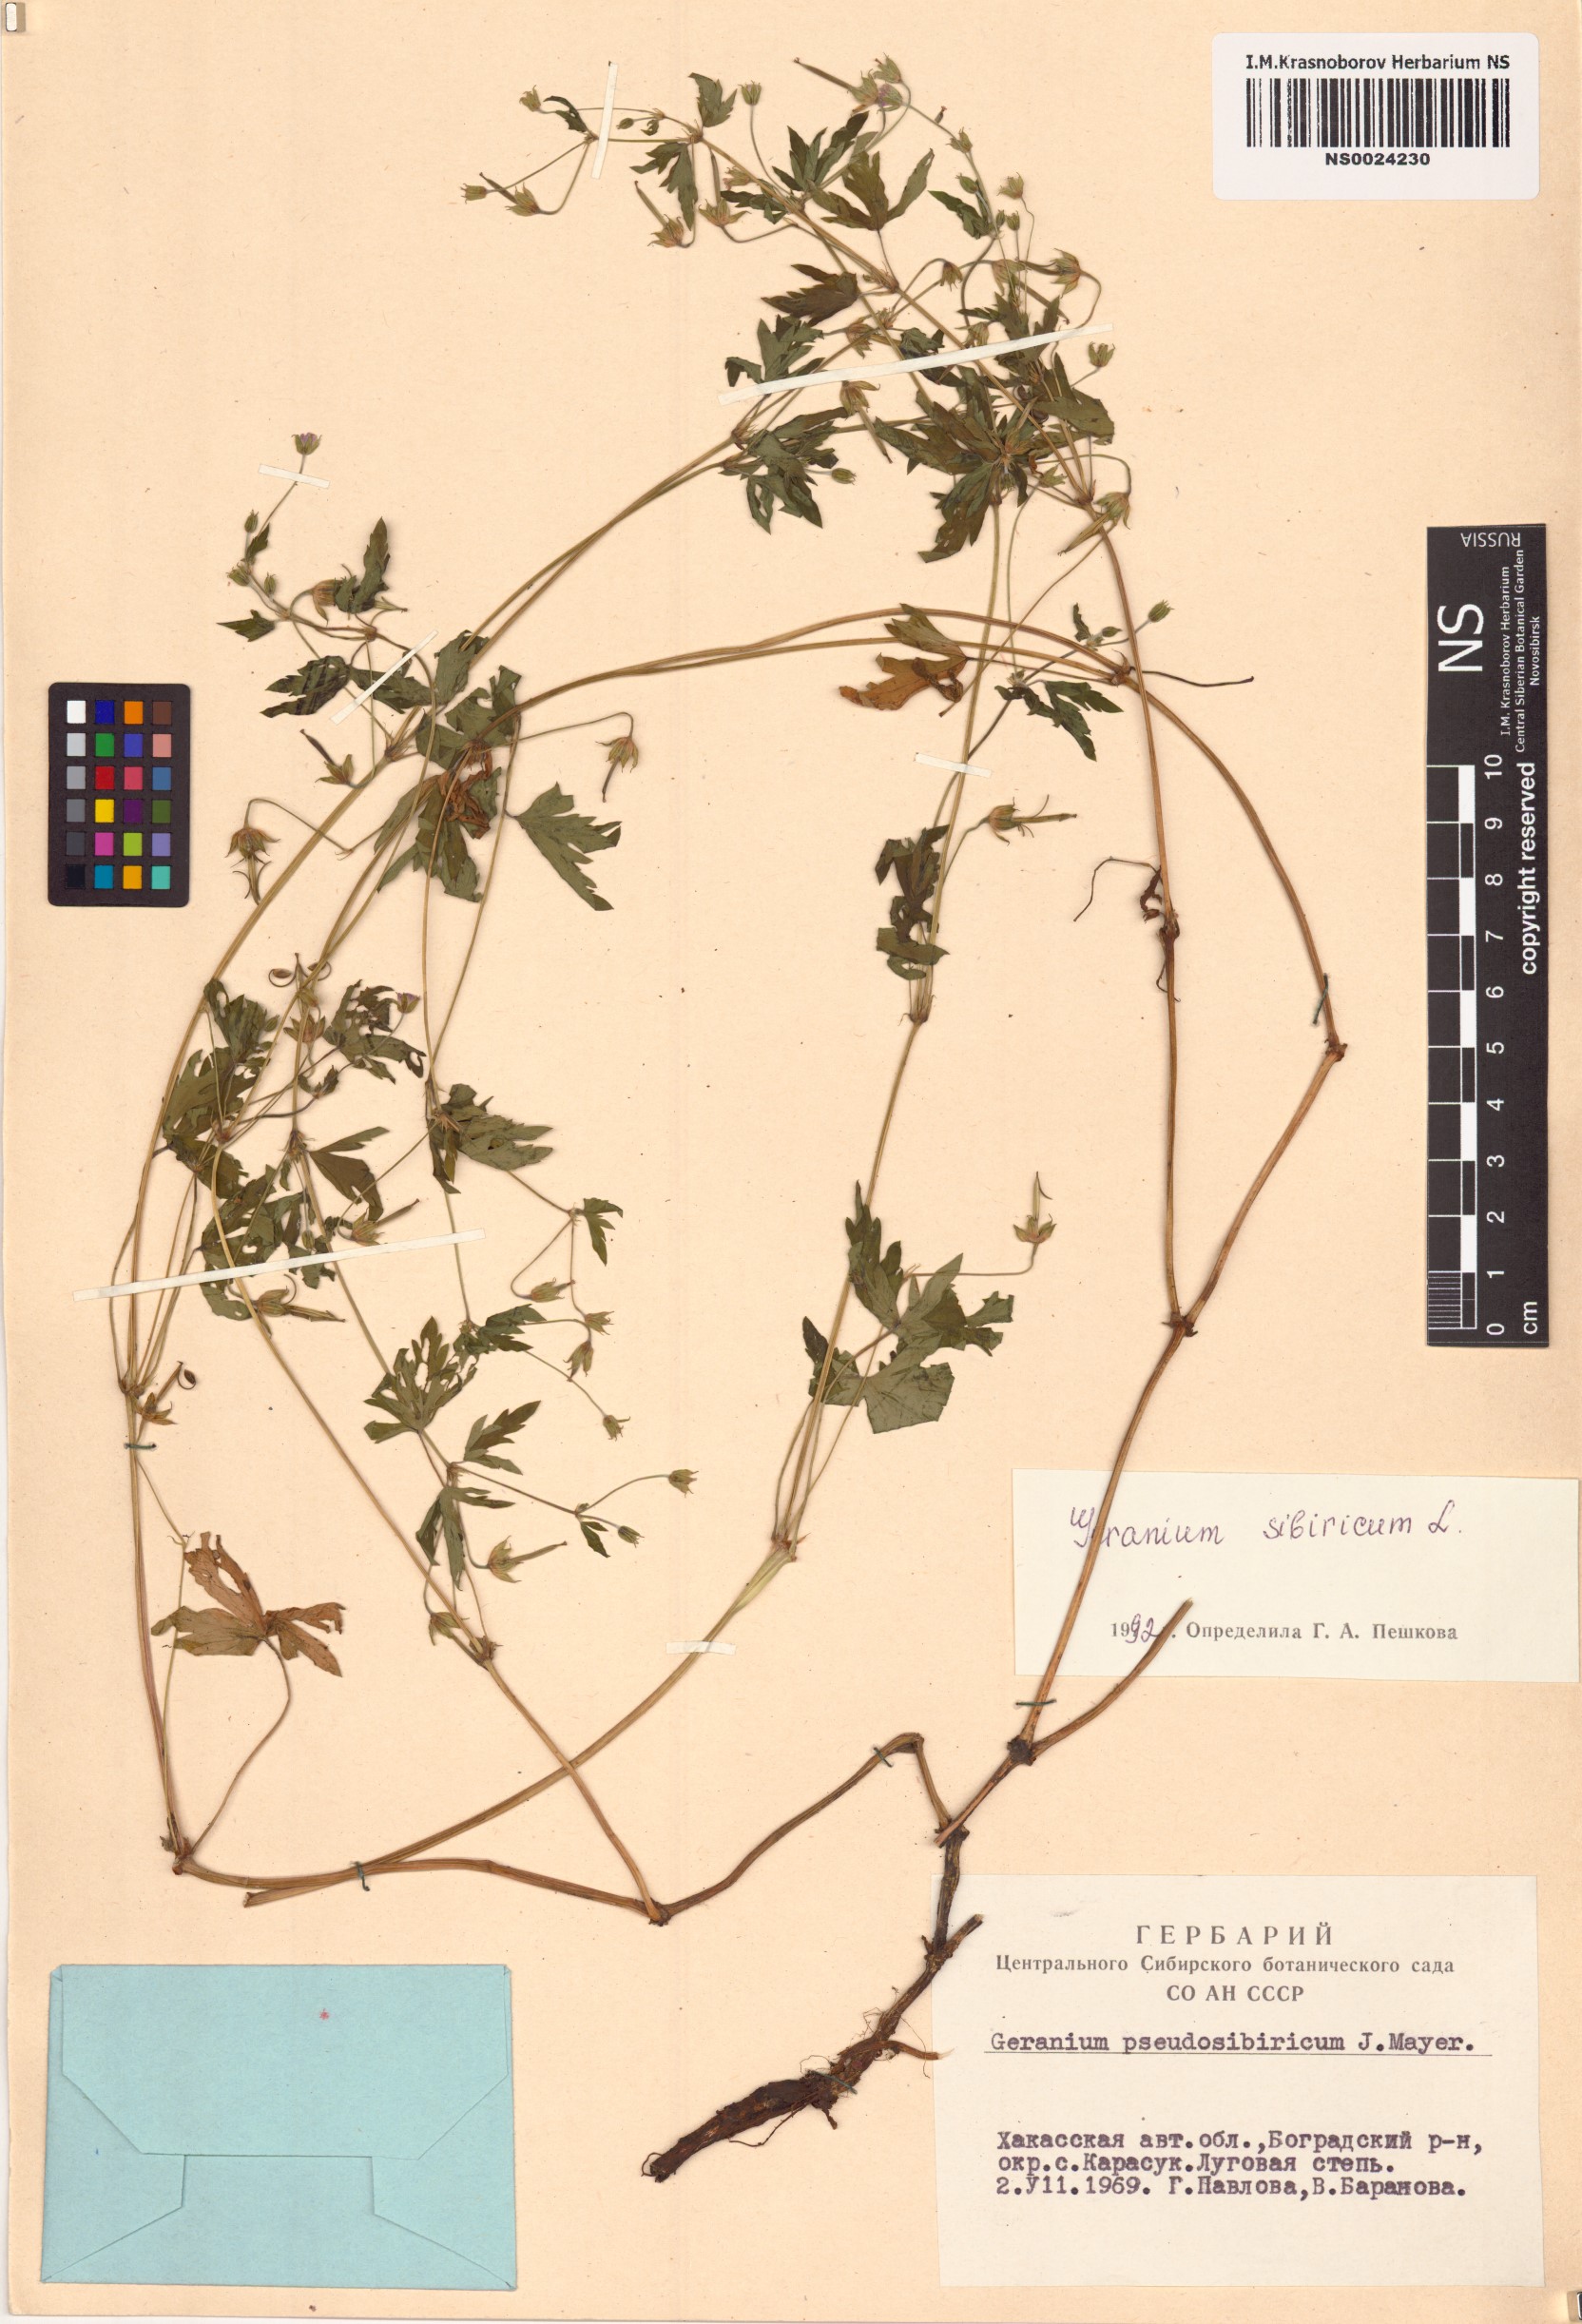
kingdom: Plantae
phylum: Tracheophyta
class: Magnoliopsida
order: Geraniales
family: Geraniaceae
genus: Geranium
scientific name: Geranium sibiricum
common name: Siberian crane's-bill
